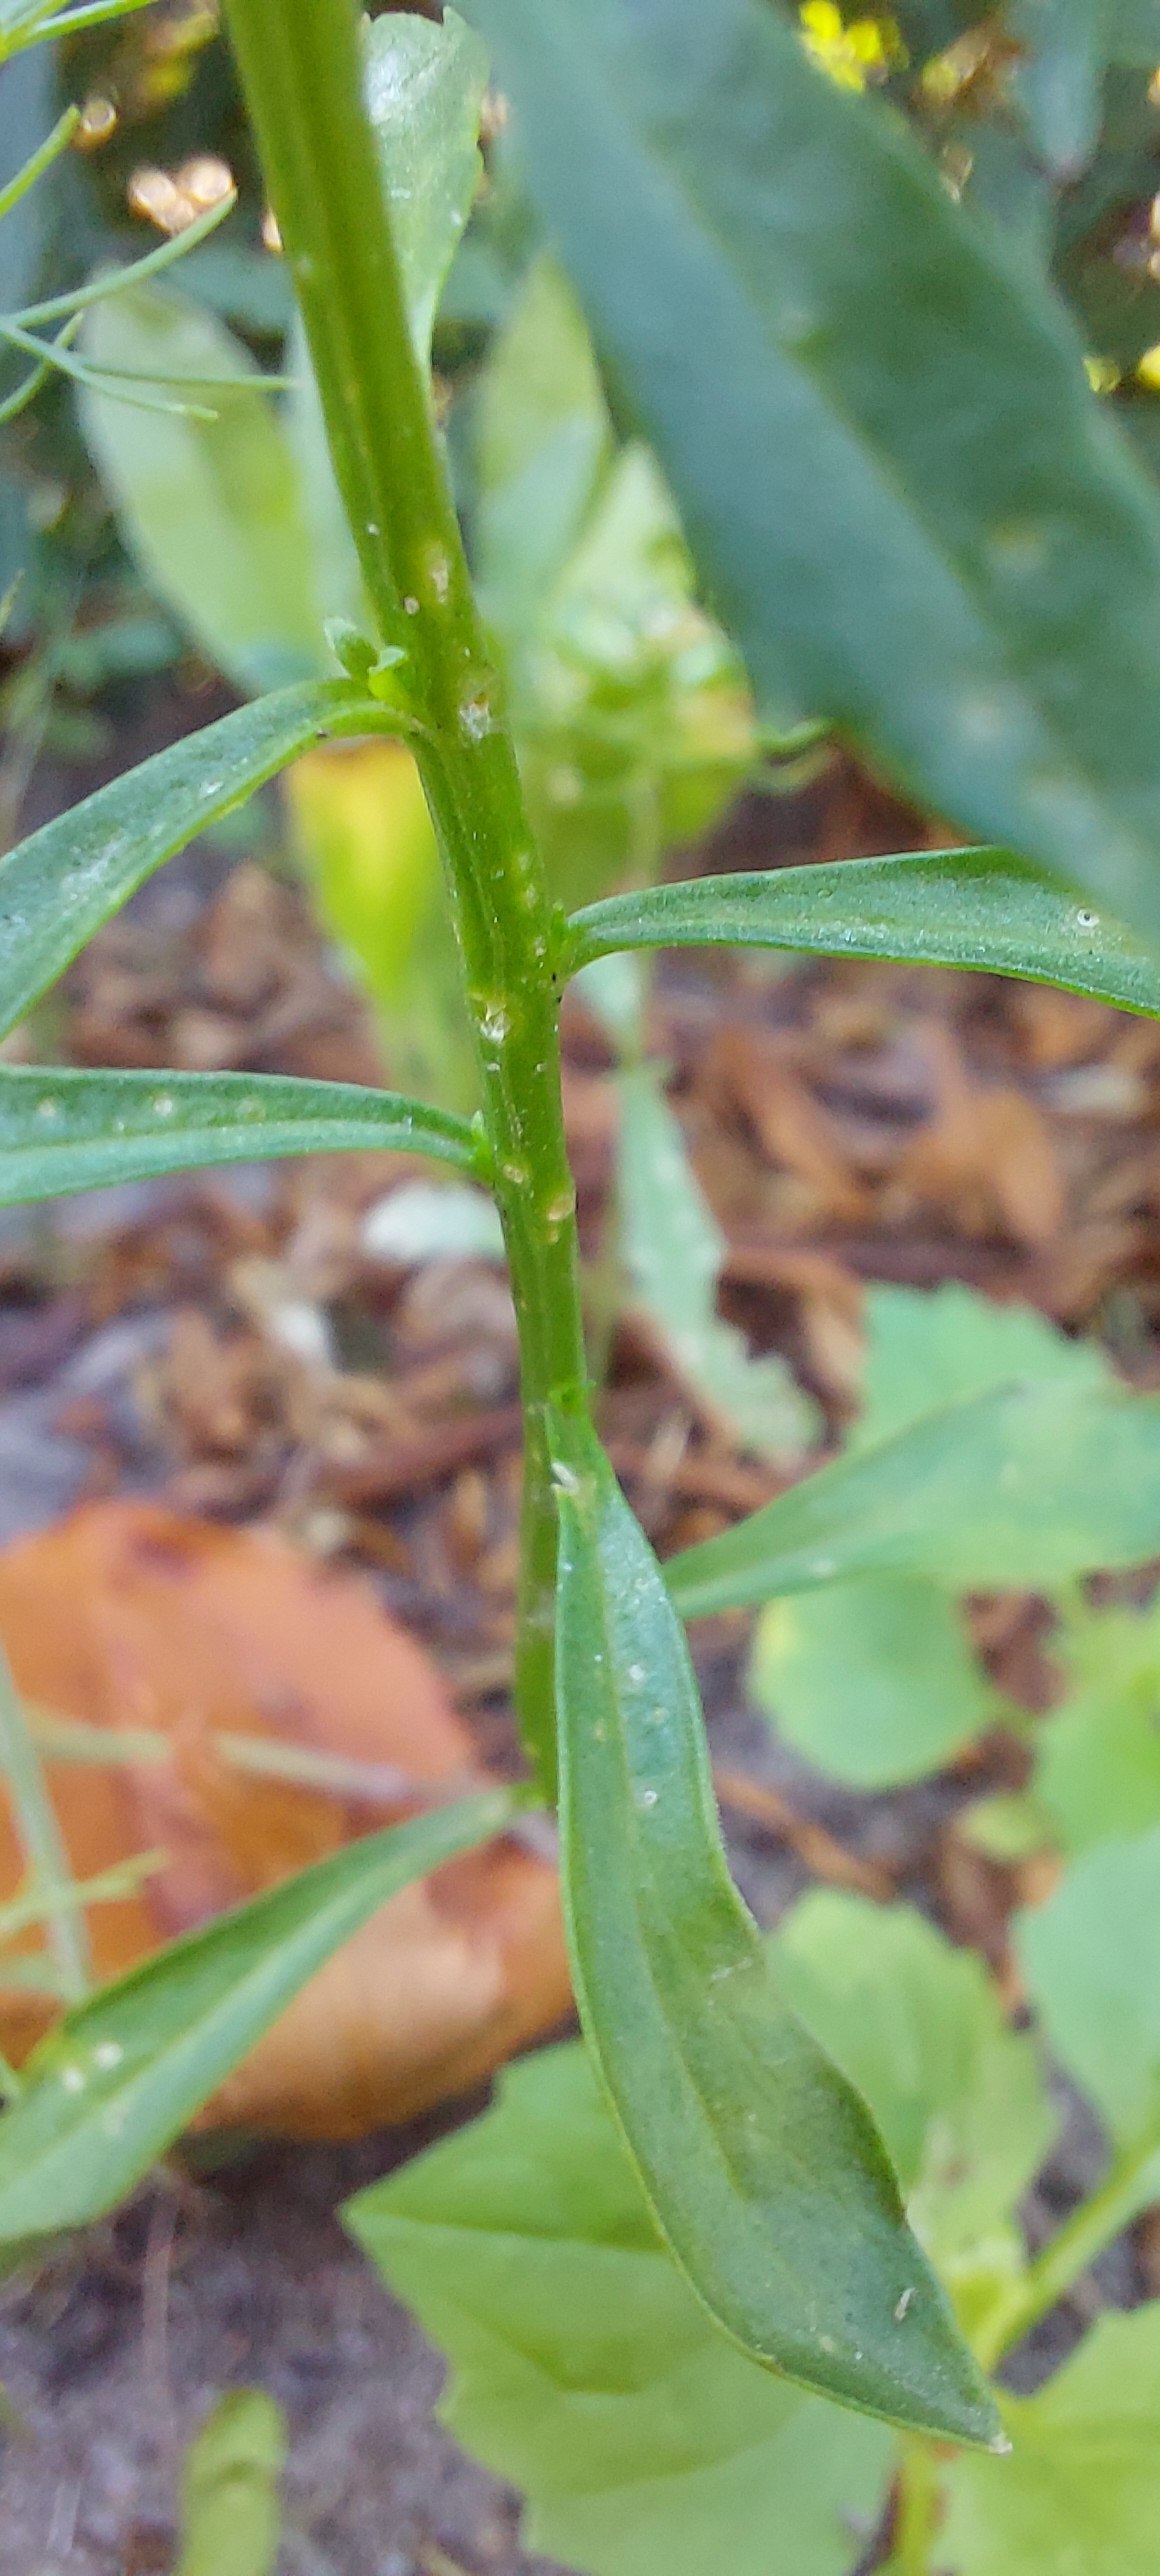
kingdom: Plantae
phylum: Tracheophyta
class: Magnoliopsida
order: Brassicales
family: Brassicaceae
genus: Iberis
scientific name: Iberis umbellata
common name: Skærm-sløjfeblomst
